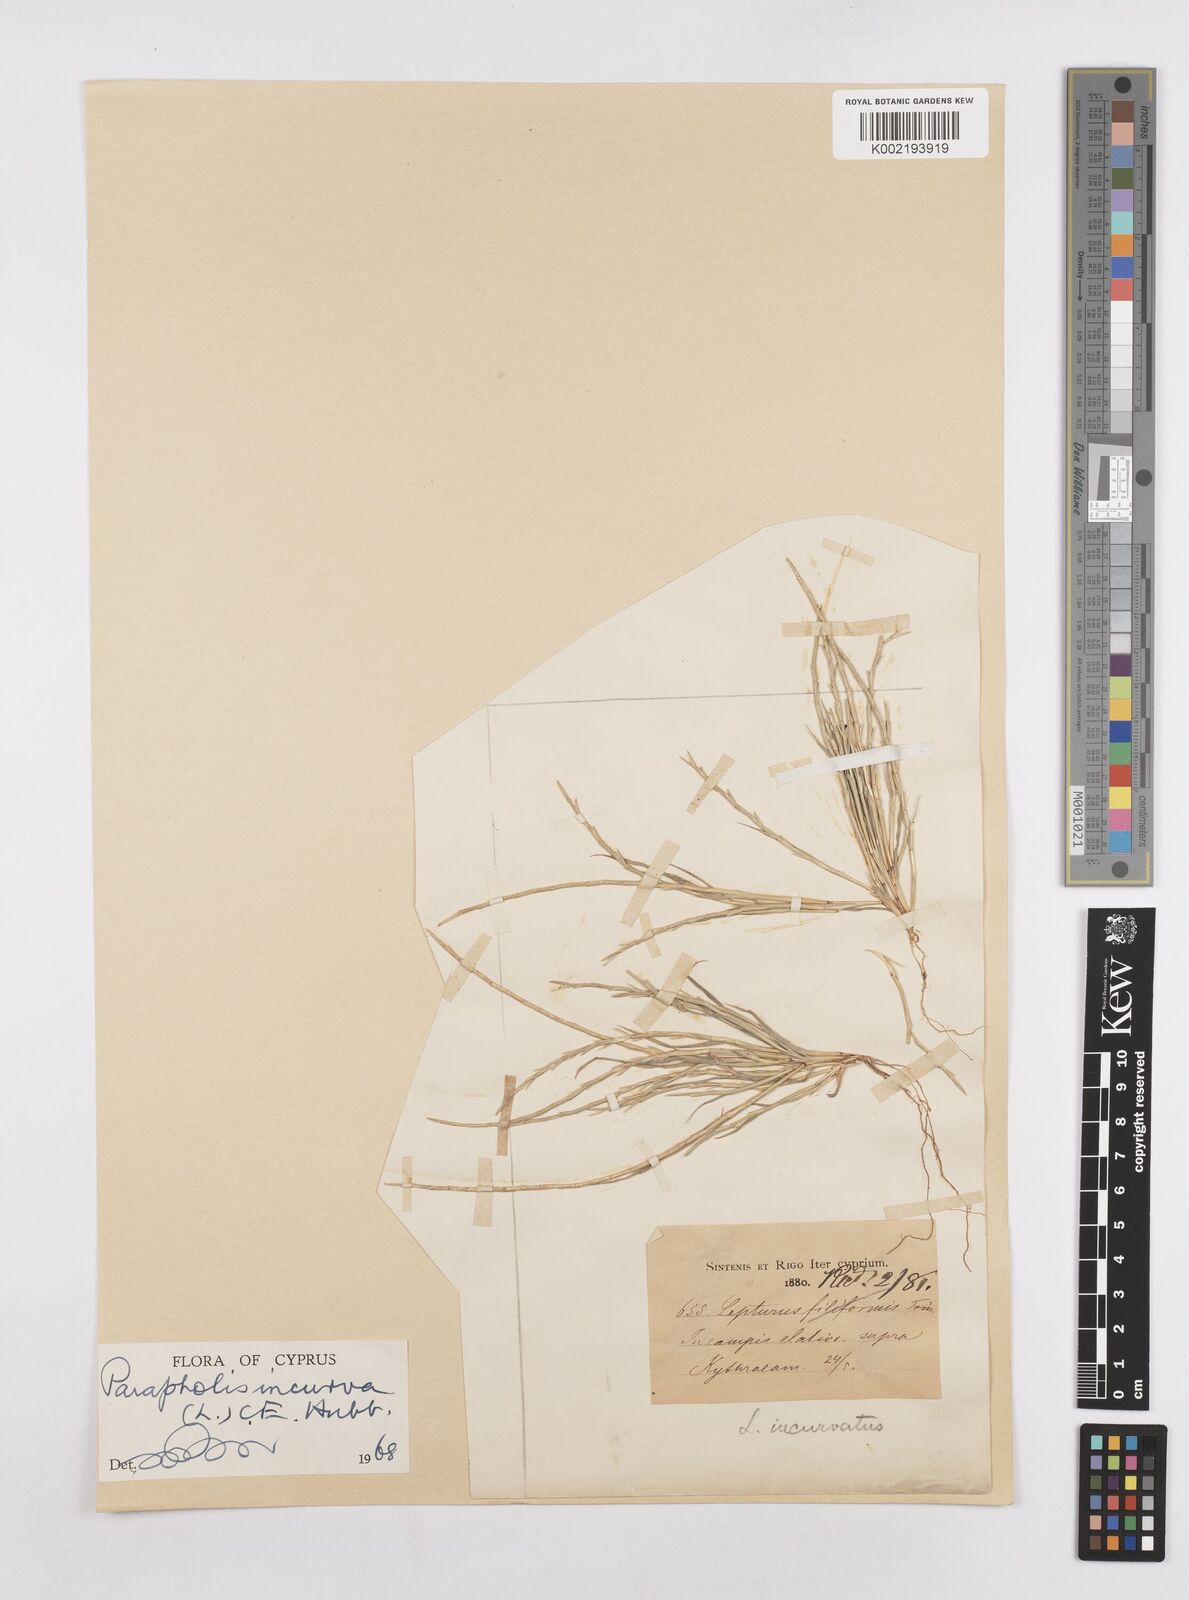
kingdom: Plantae
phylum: Tracheophyta
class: Liliopsida
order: Poales
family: Poaceae
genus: Parapholis
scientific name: Parapholis incurva
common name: Curved sicklegrass
